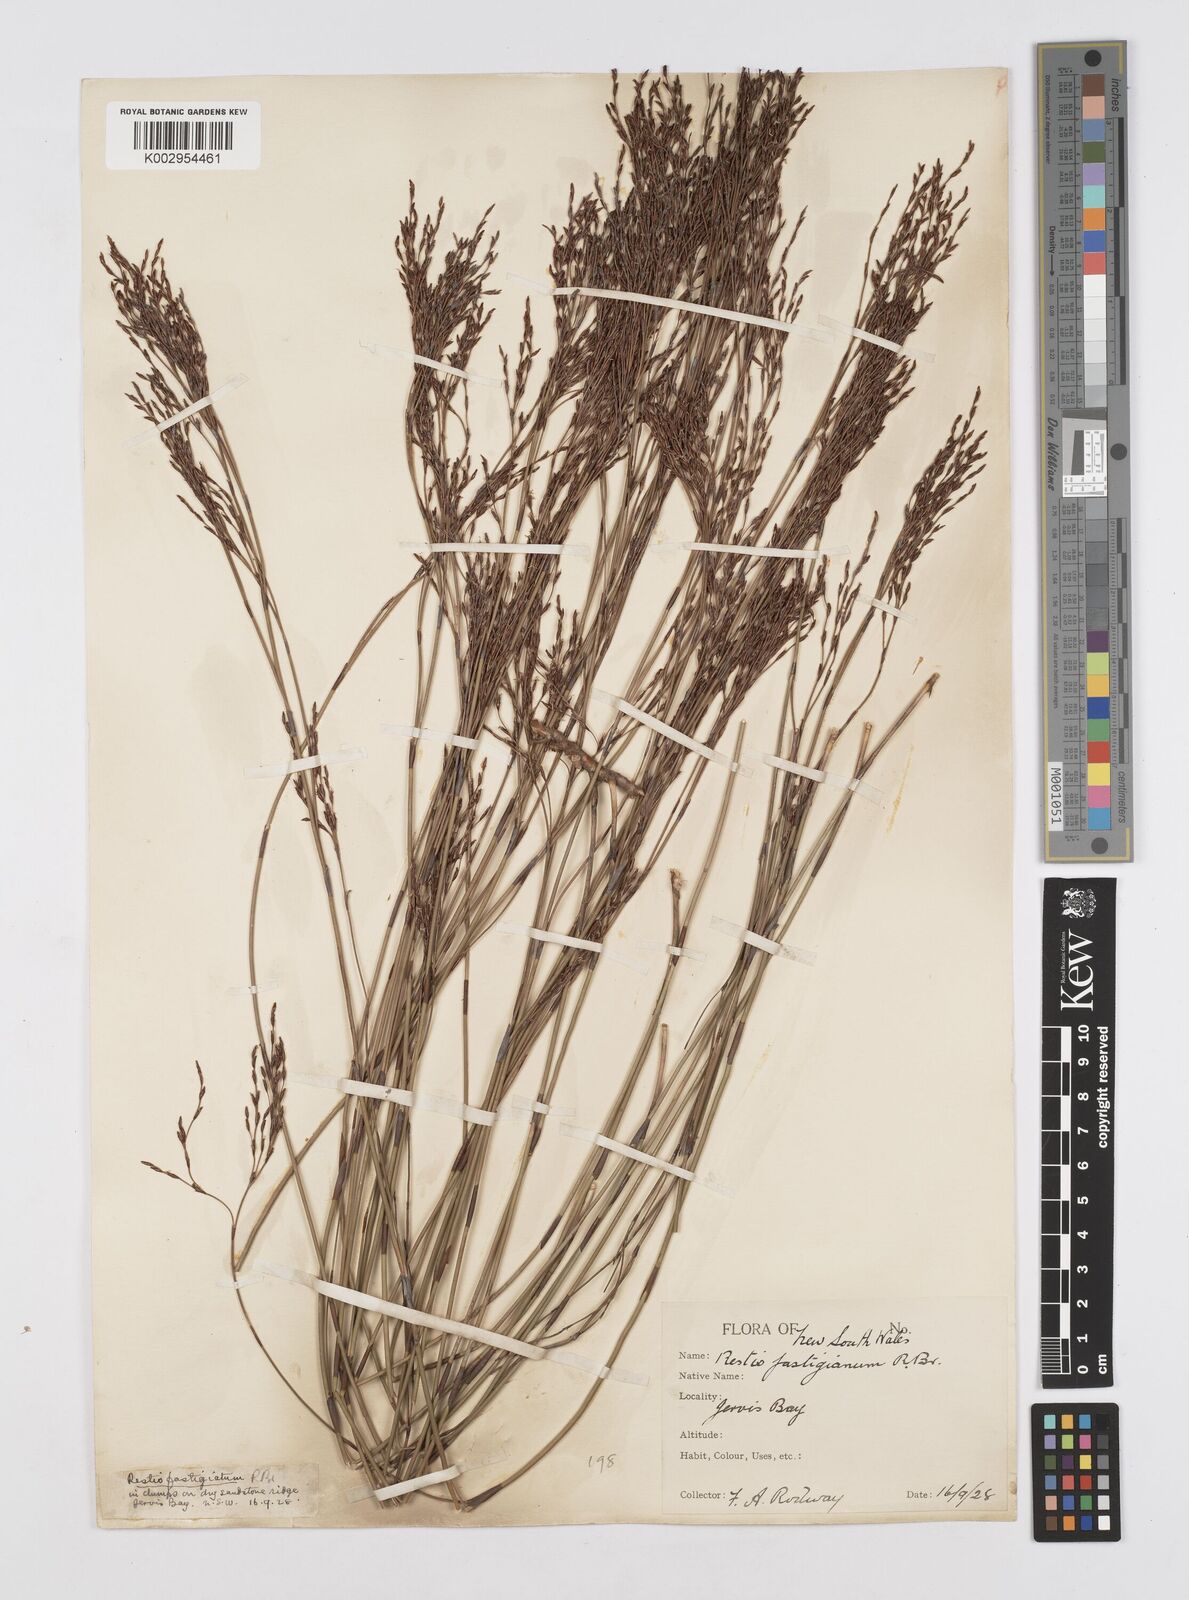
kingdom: Plantae
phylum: Tracheophyta
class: Liliopsida
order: Poales
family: Restionaceae
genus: Chordifex
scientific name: Chordifex fastigiatus
